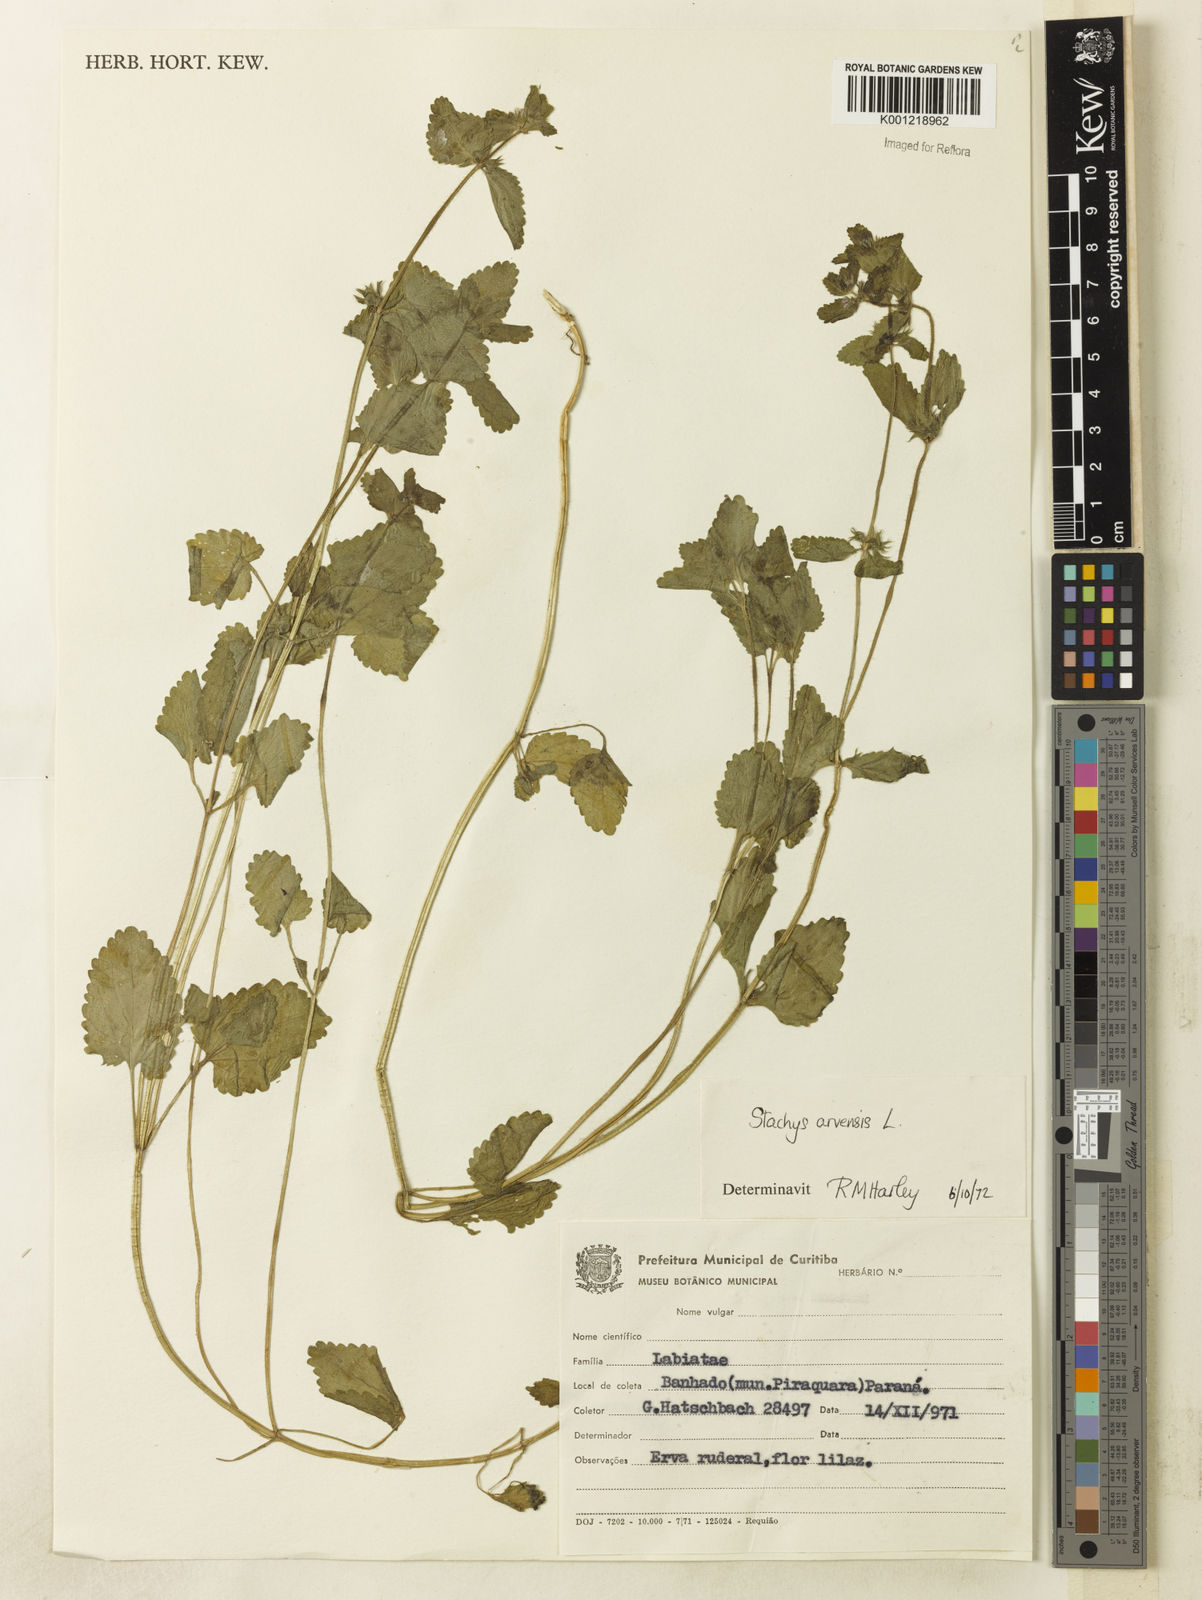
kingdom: Plantae
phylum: Tracheophyta
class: Magnoliopsida
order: Lamiales
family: Lamiaceae
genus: Stachys
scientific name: Stachys arvensis
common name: Field woundwort
